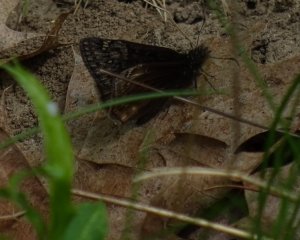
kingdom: Animalia
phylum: Arthropoda
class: Insecta
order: Lepidoptera
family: Hesperiidae
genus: Gesta
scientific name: Gesta
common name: Wild Indigo Duskywing
